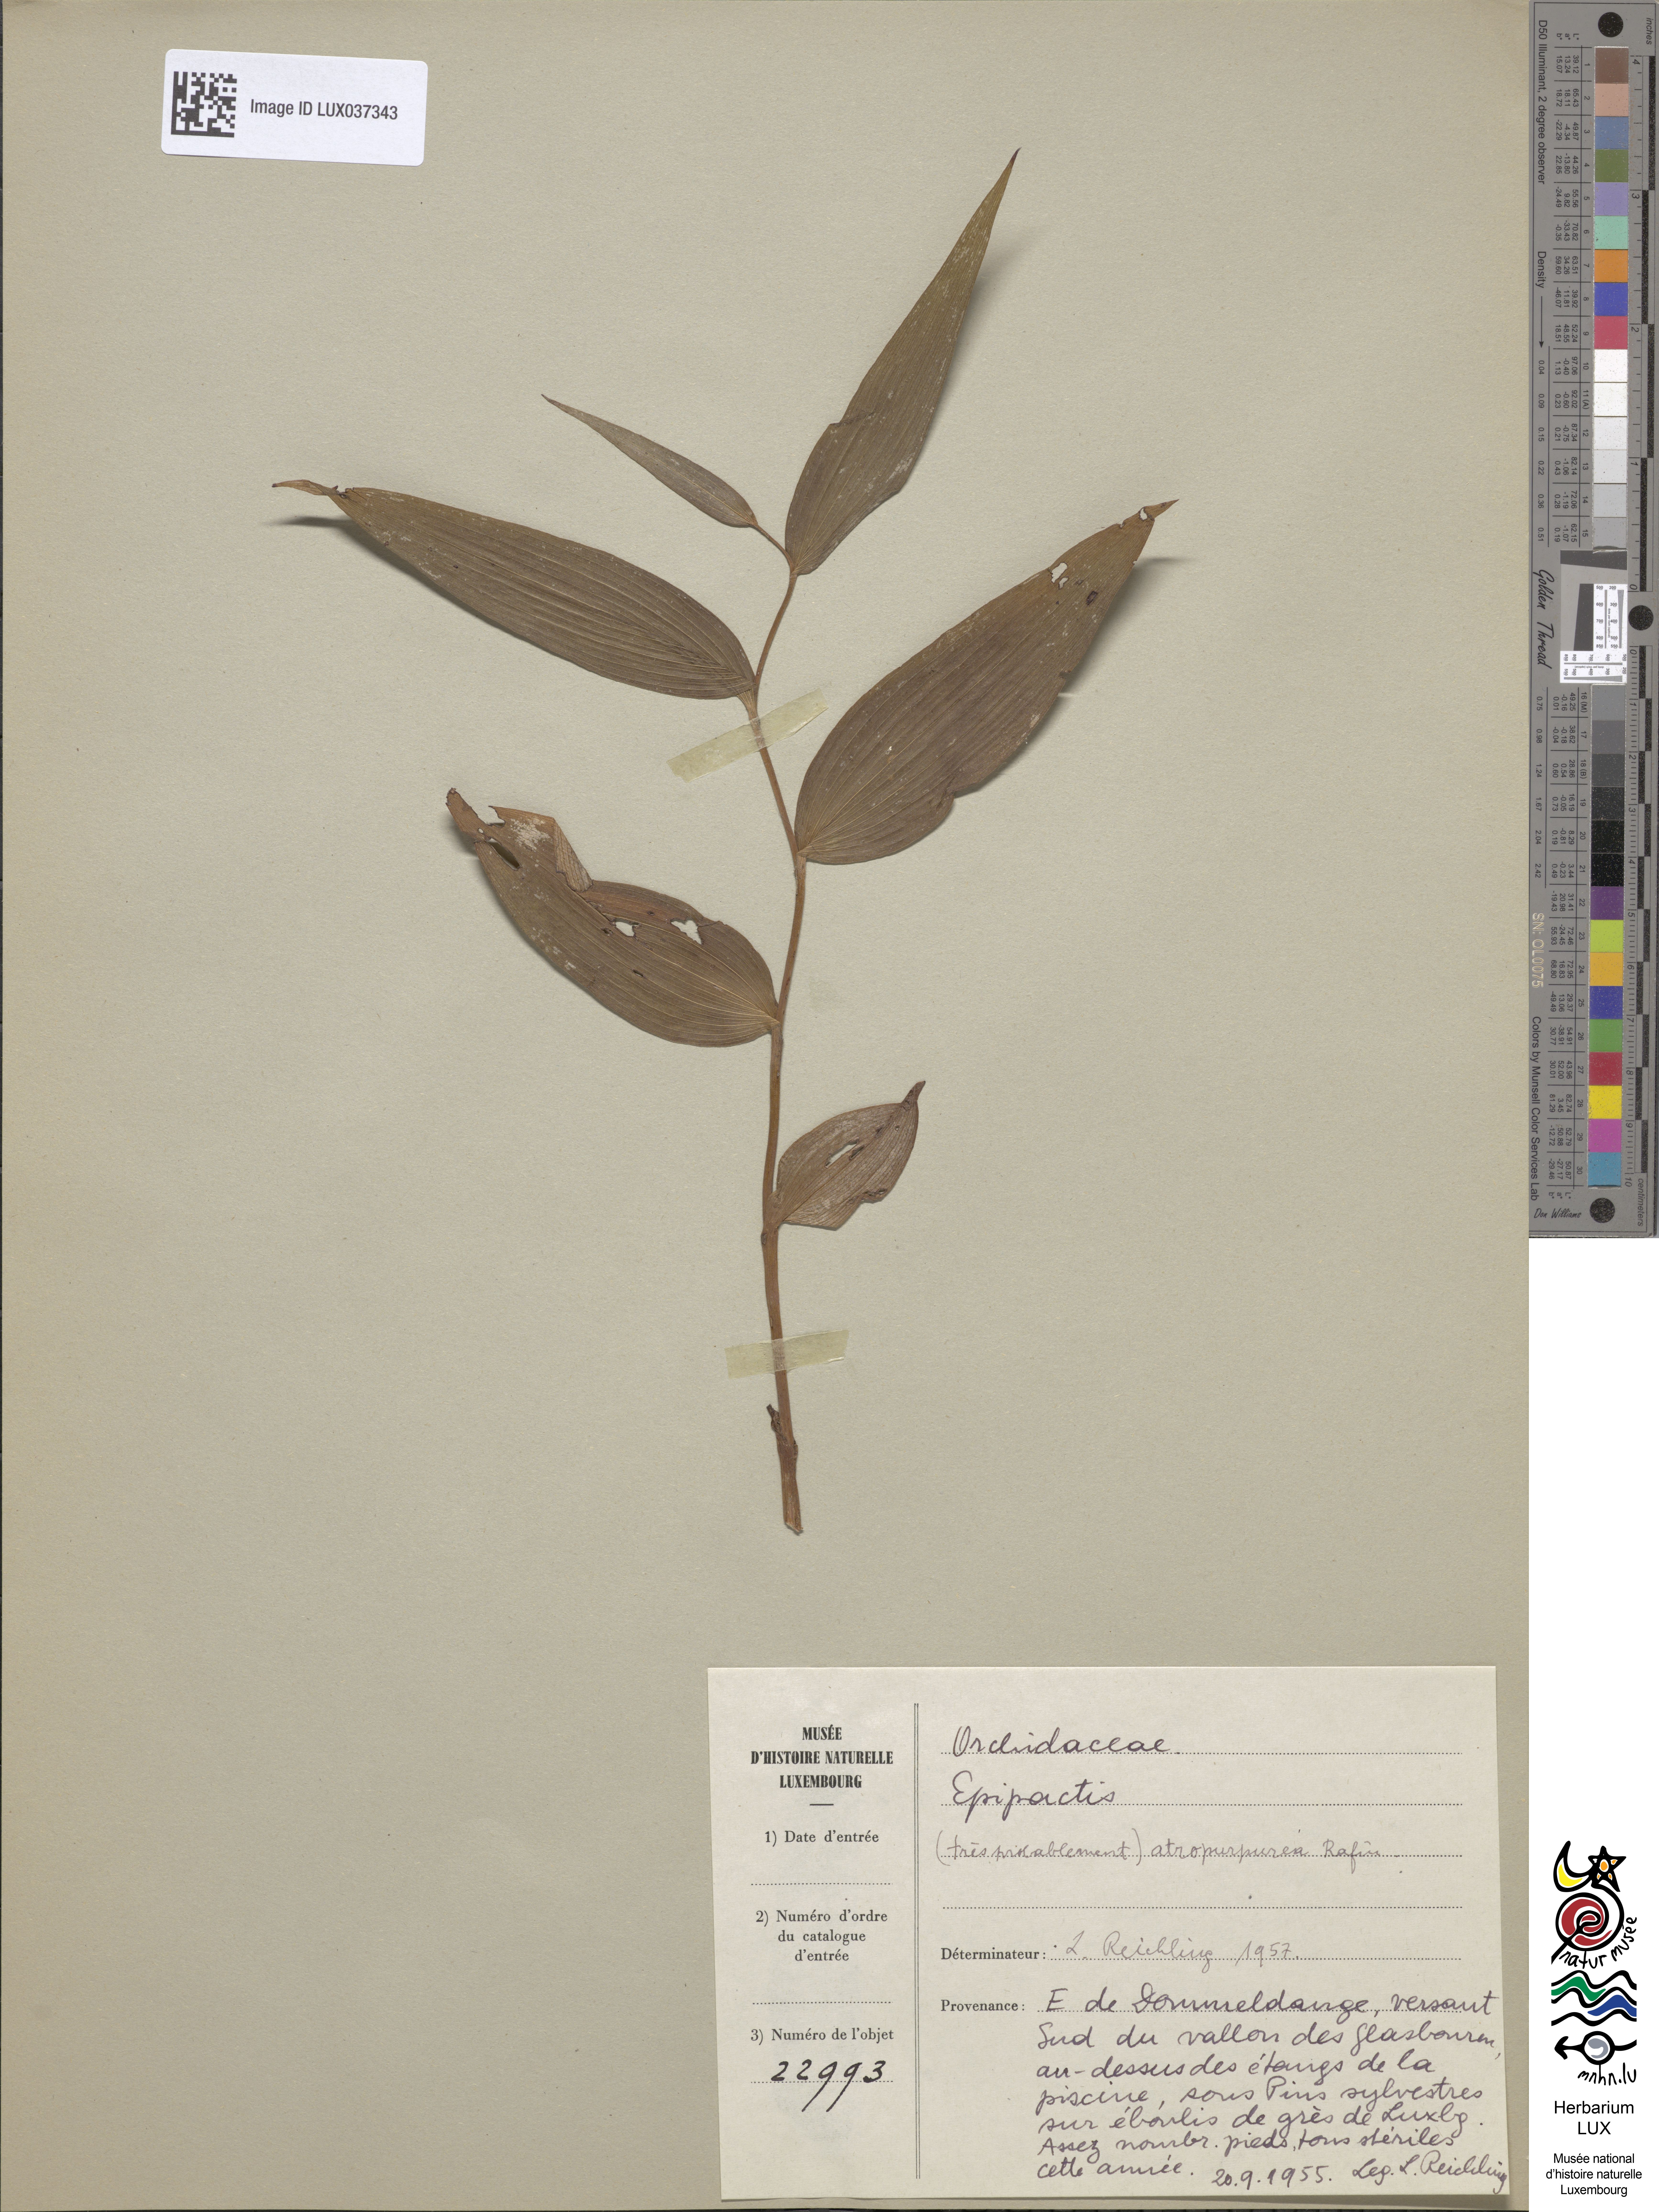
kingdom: Plantae
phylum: Tracheophyta
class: Liliopsida
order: Asparagales
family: Orchidaceae
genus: Epipactis
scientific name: Epipactis
